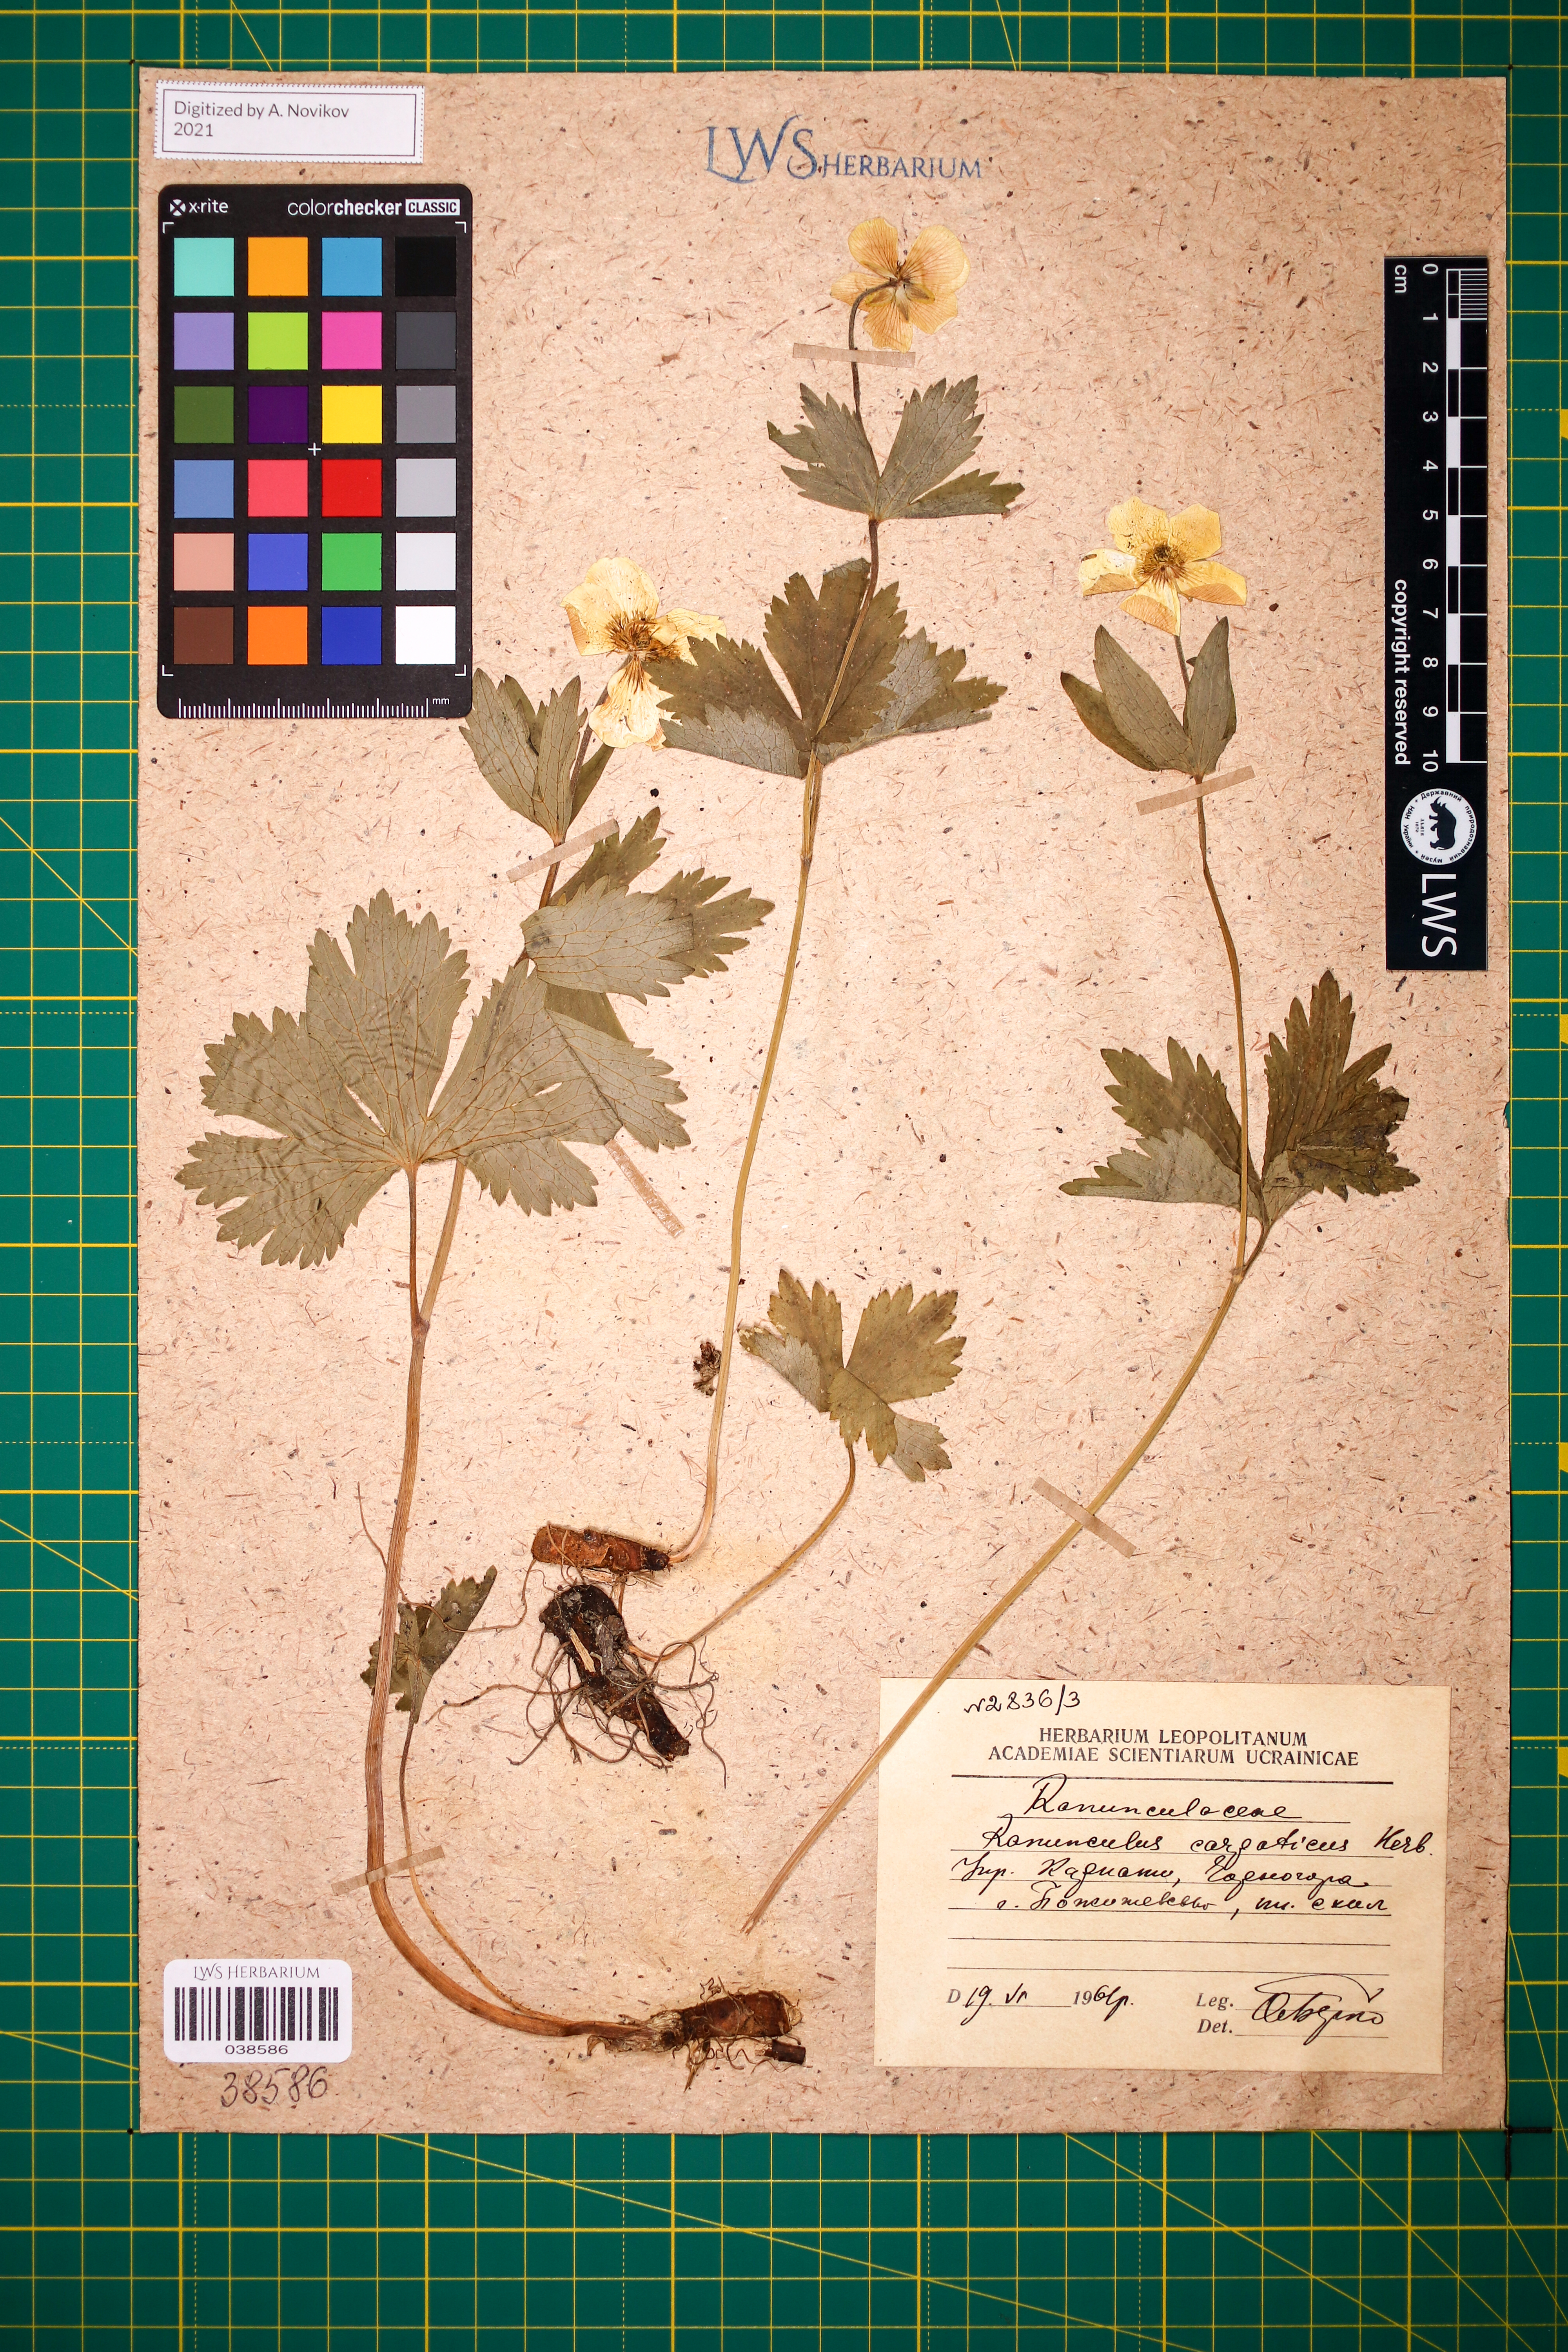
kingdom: Plantae
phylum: Tracheophyta
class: Magnoliopsida
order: Ranunculales
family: Ranunculaceae
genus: Ranunculus
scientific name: Ranunculus carpaticus
